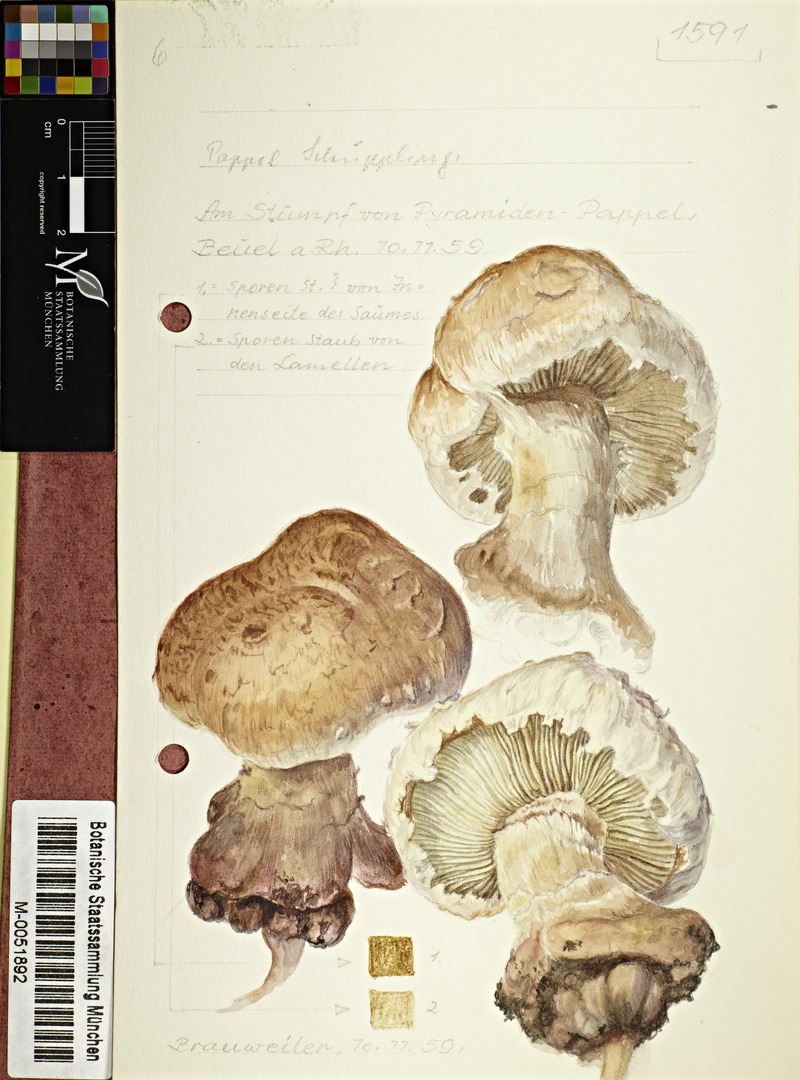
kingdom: Fungi
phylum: Basidiomycota
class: Agaricomycetes
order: Agaricales
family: Strophariaceae
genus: Pholiota
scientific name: Pholiota populnea
